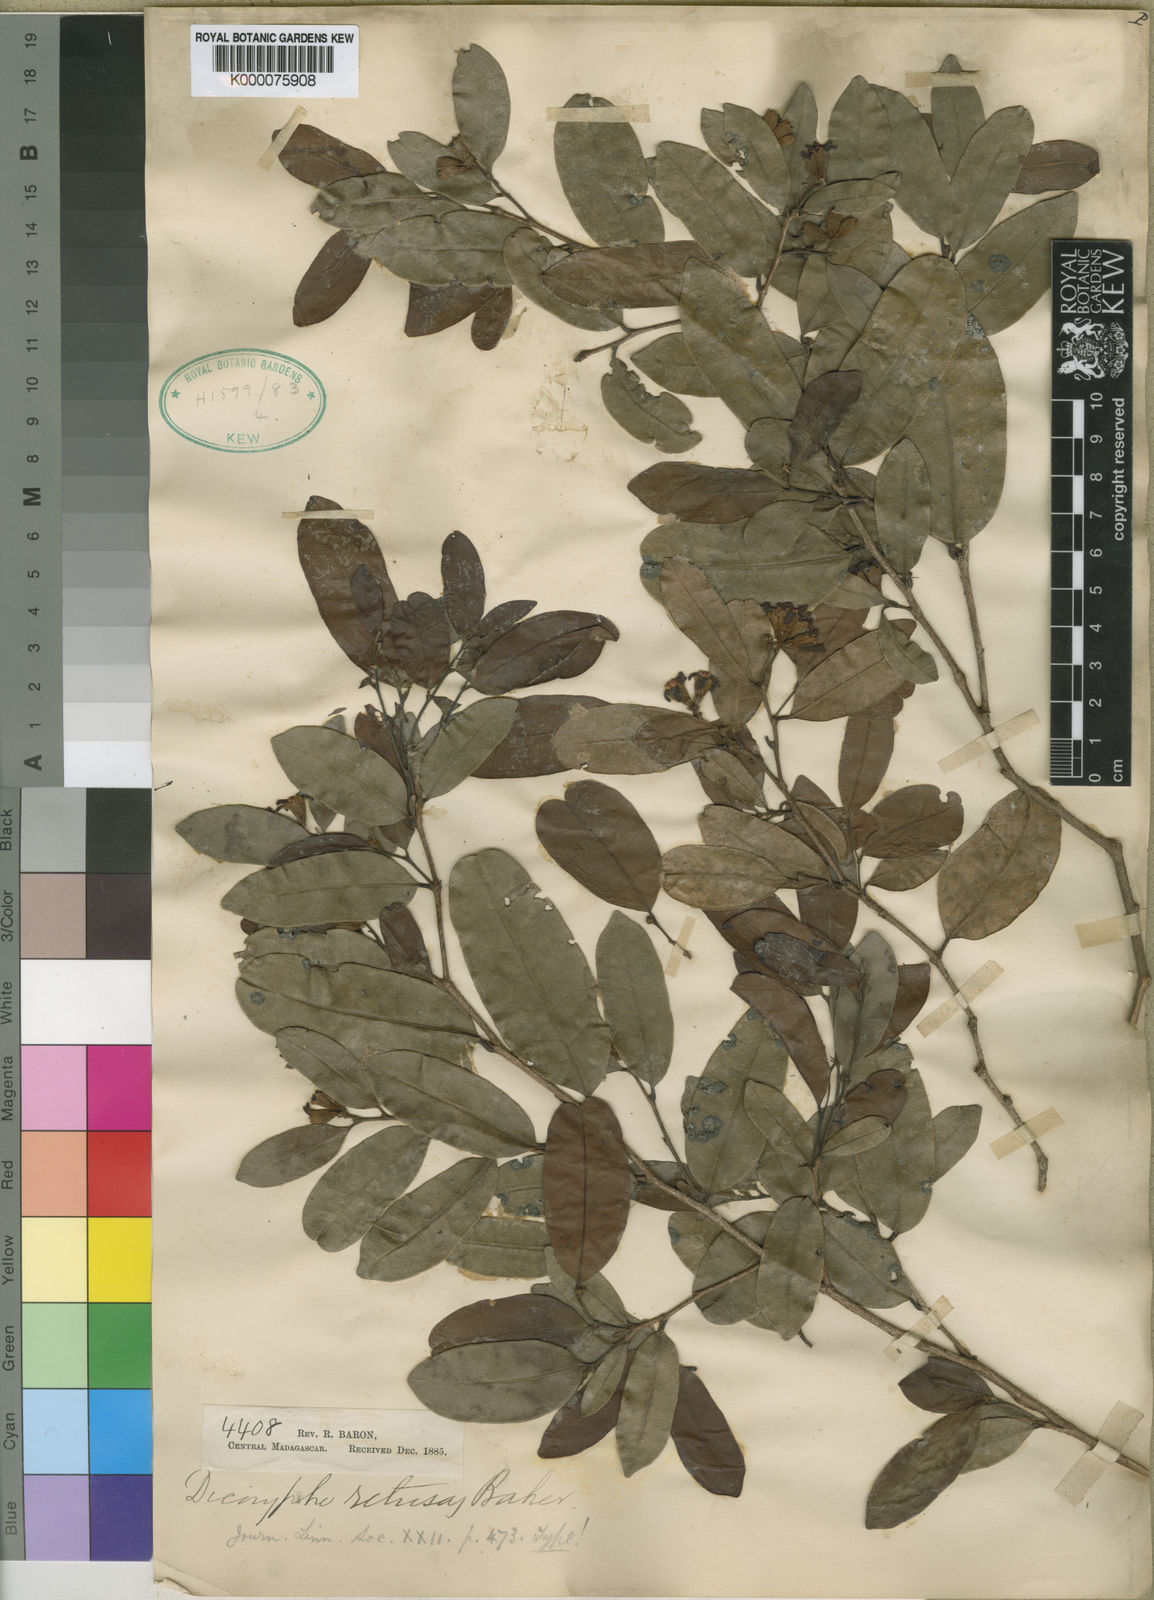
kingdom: Plantae
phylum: Tracheophyta
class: Magnoliopsida
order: Saxifragales
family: Hamamelidaceae
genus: Dicoryphe
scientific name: Dicoryphe laurina
